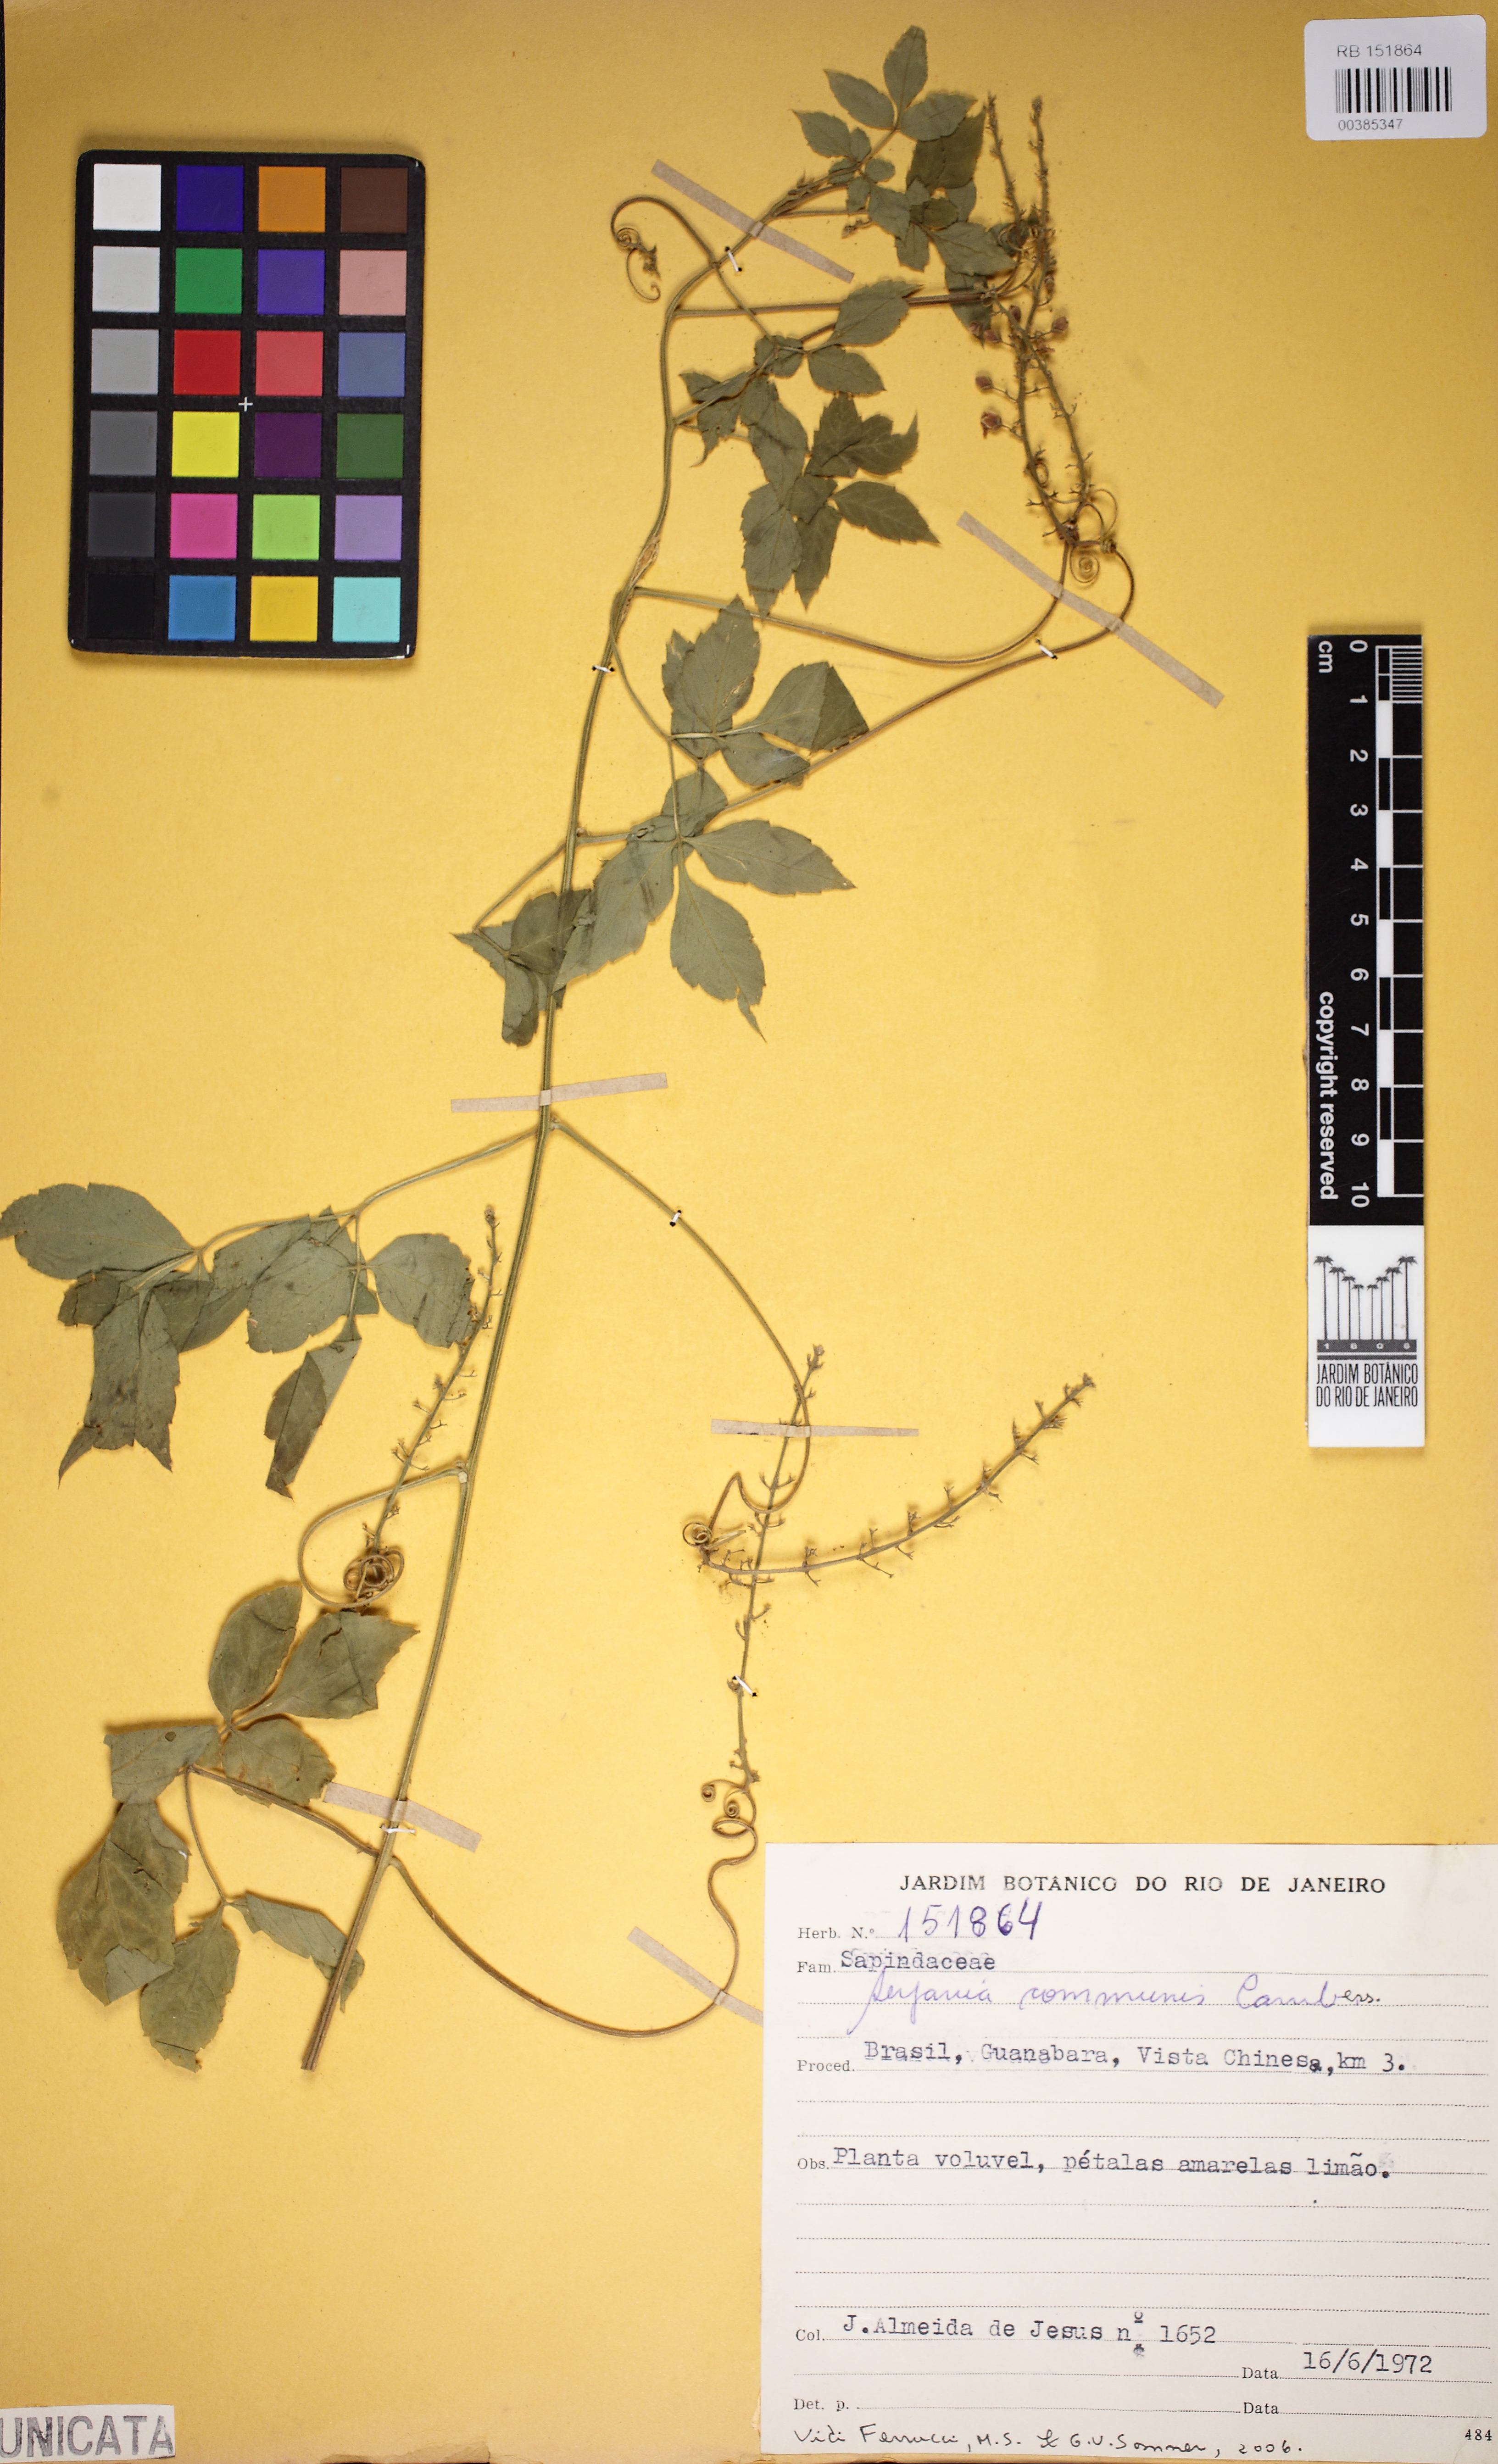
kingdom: Plantae
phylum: Tracheophyta
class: Magnoliopsida
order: Sapindales
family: Sapindaceae
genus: Serjania
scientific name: Serjania communis
